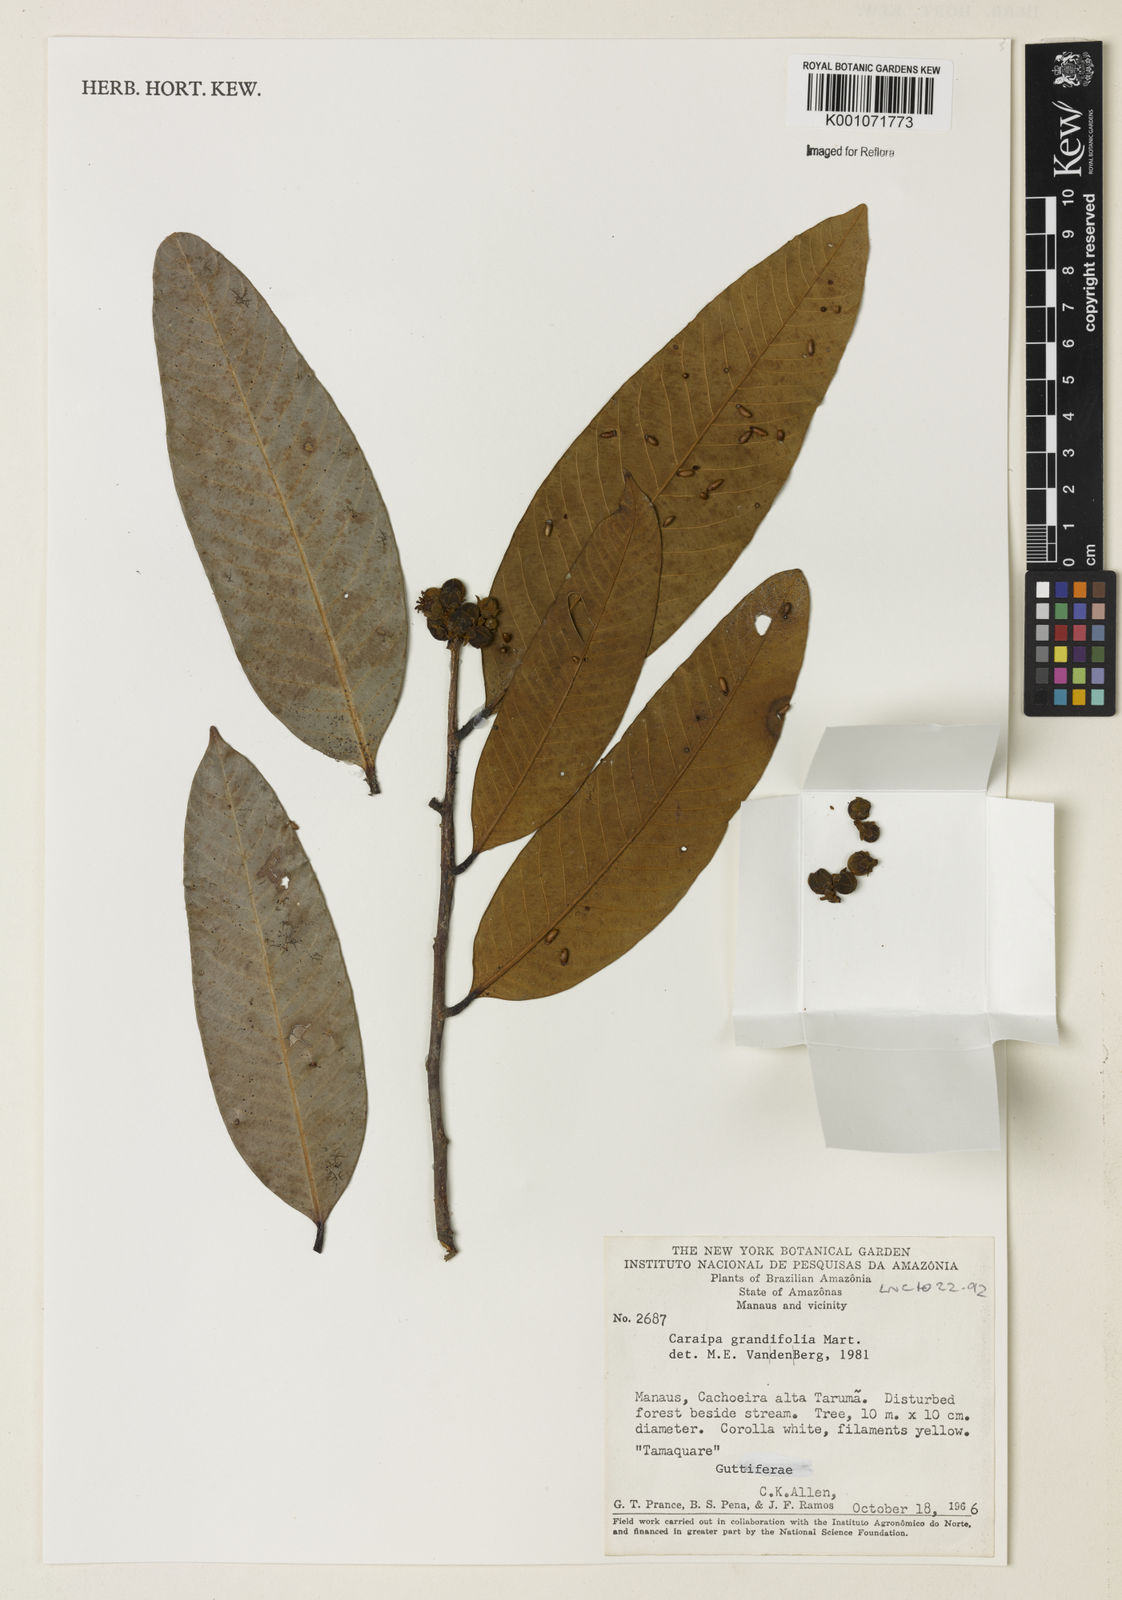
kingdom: Plantae
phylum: Tracheophyta
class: Magnoliopsida
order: Malpighiales
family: Calophyllaceae
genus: Caraipa
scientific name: Caraipa grandifolia
